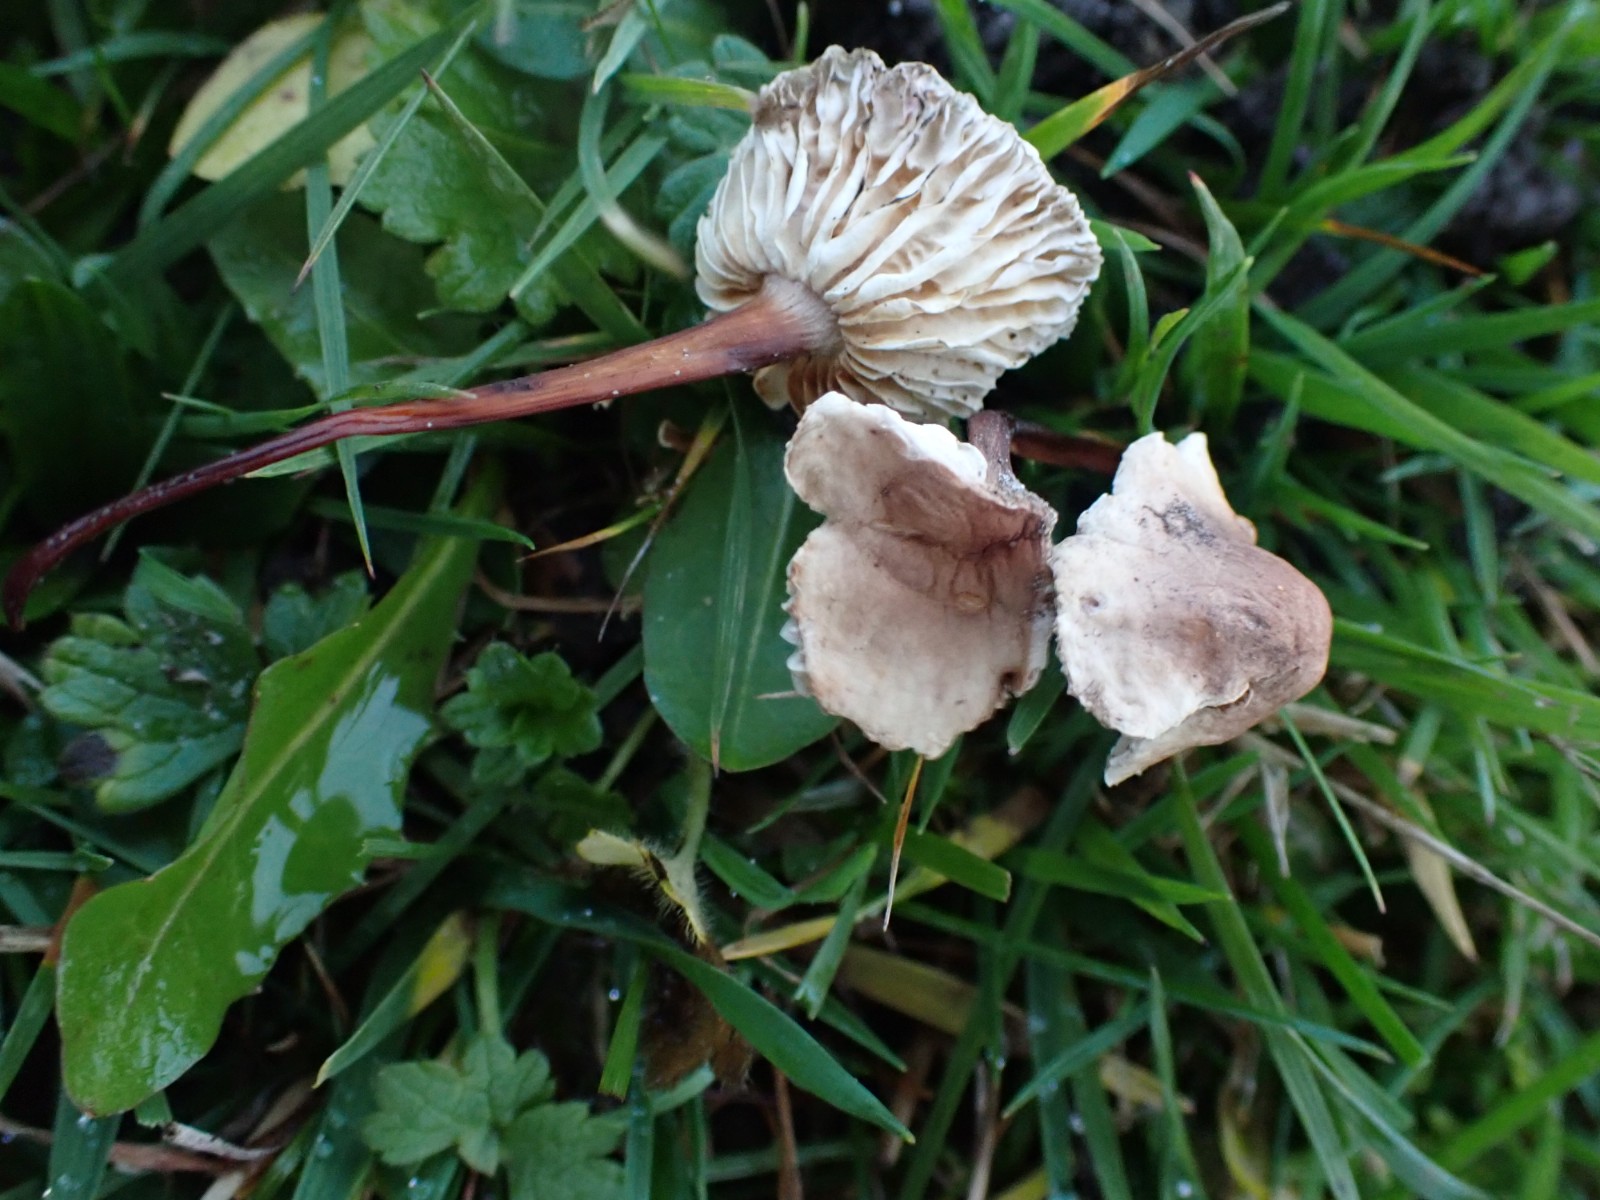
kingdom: Fungi
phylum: Basidiomycota
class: Agaricomycetes
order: Agaricales
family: Omphalotaceae
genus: Mycetinis
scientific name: Mycetinis scorodonius
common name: lille løghat
